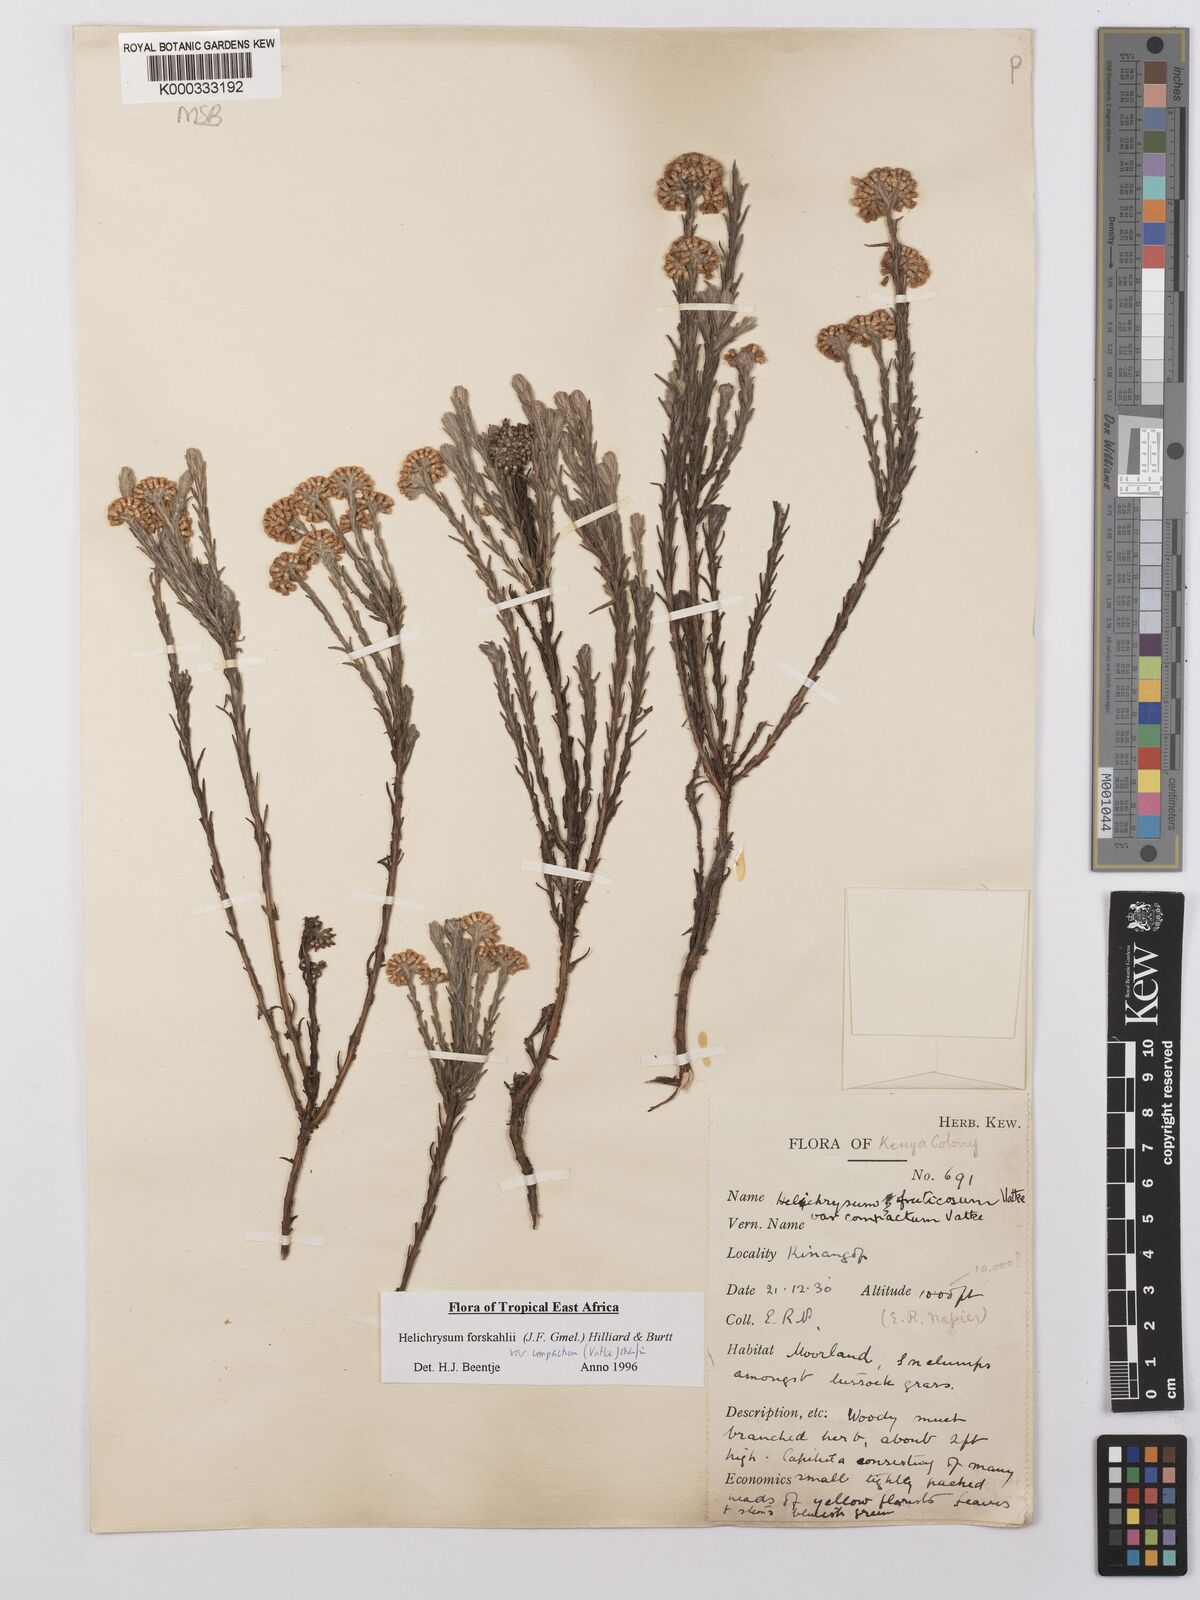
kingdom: Plantae
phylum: Tracheophyta
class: Magnoliopsida
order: Asterales
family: Asteraceae
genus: Helichrysum
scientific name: Helichrysum forskahlii
